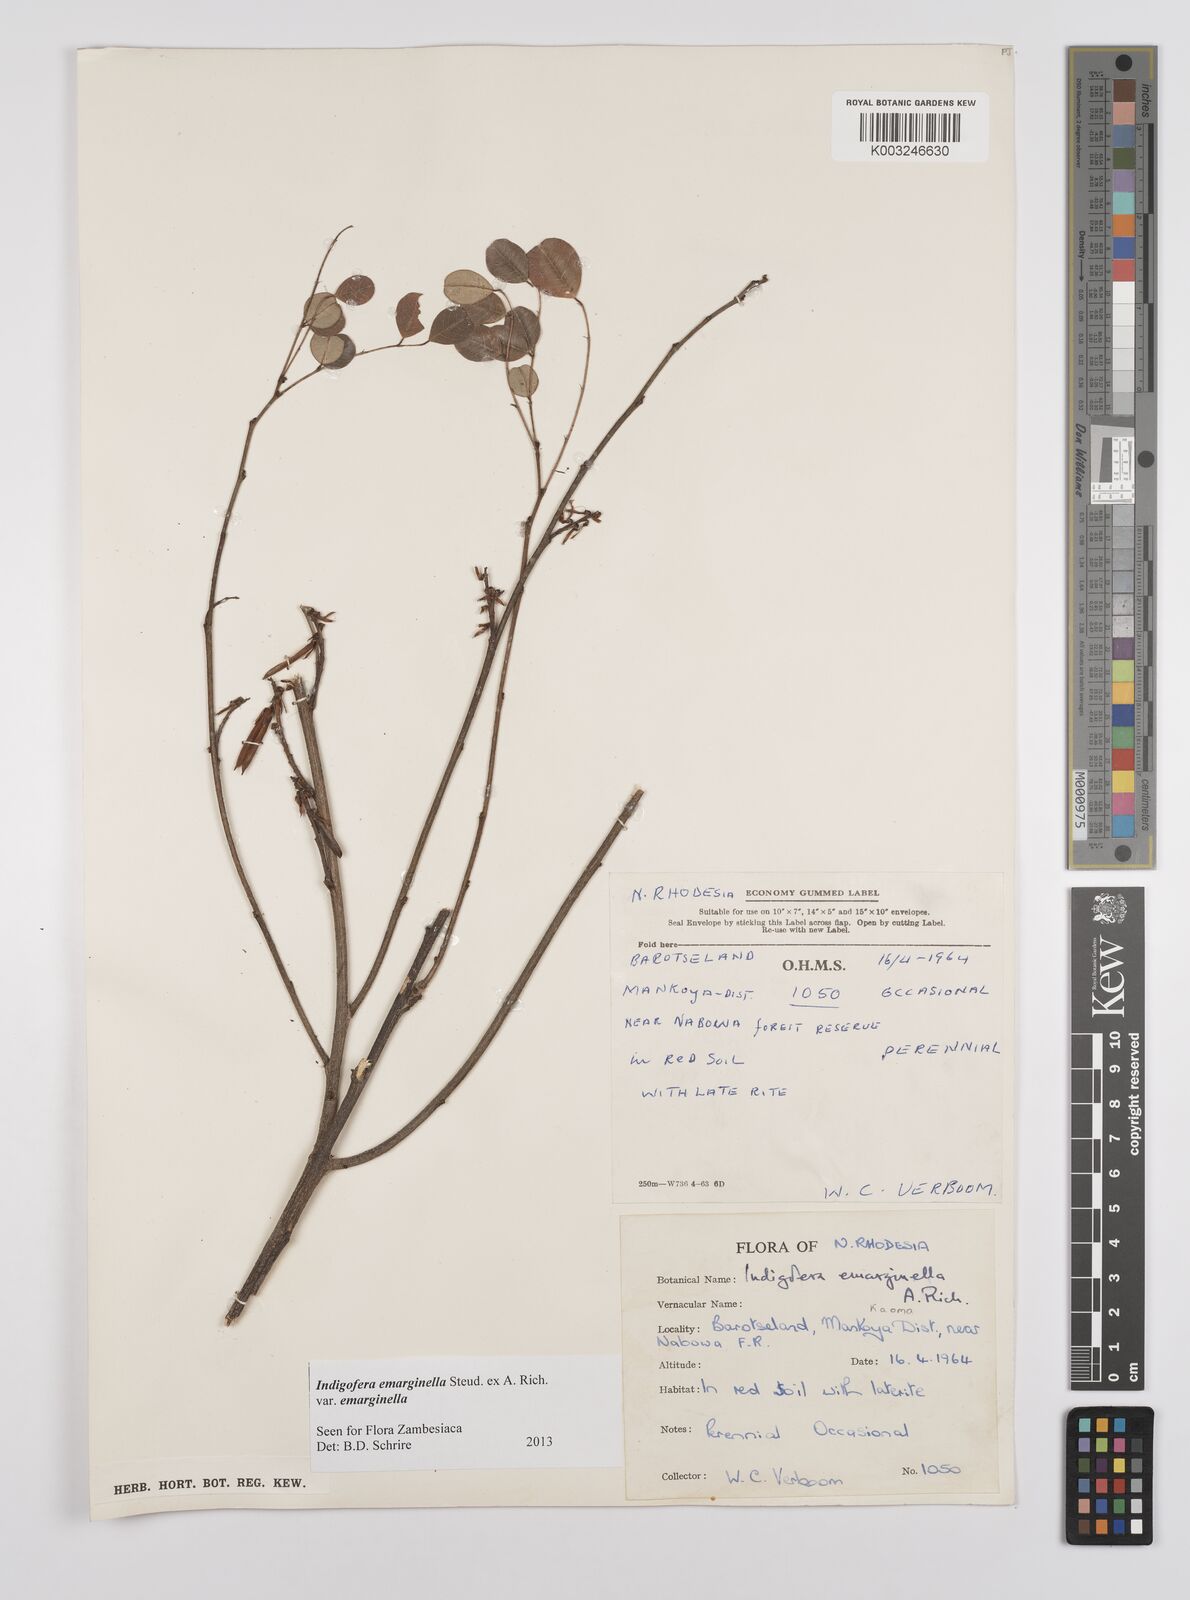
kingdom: Plantae
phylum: Tracheophyta
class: Magnoliopsida
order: Fabales
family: Fabaceae
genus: Indigofera
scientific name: Indigofera emarginella
